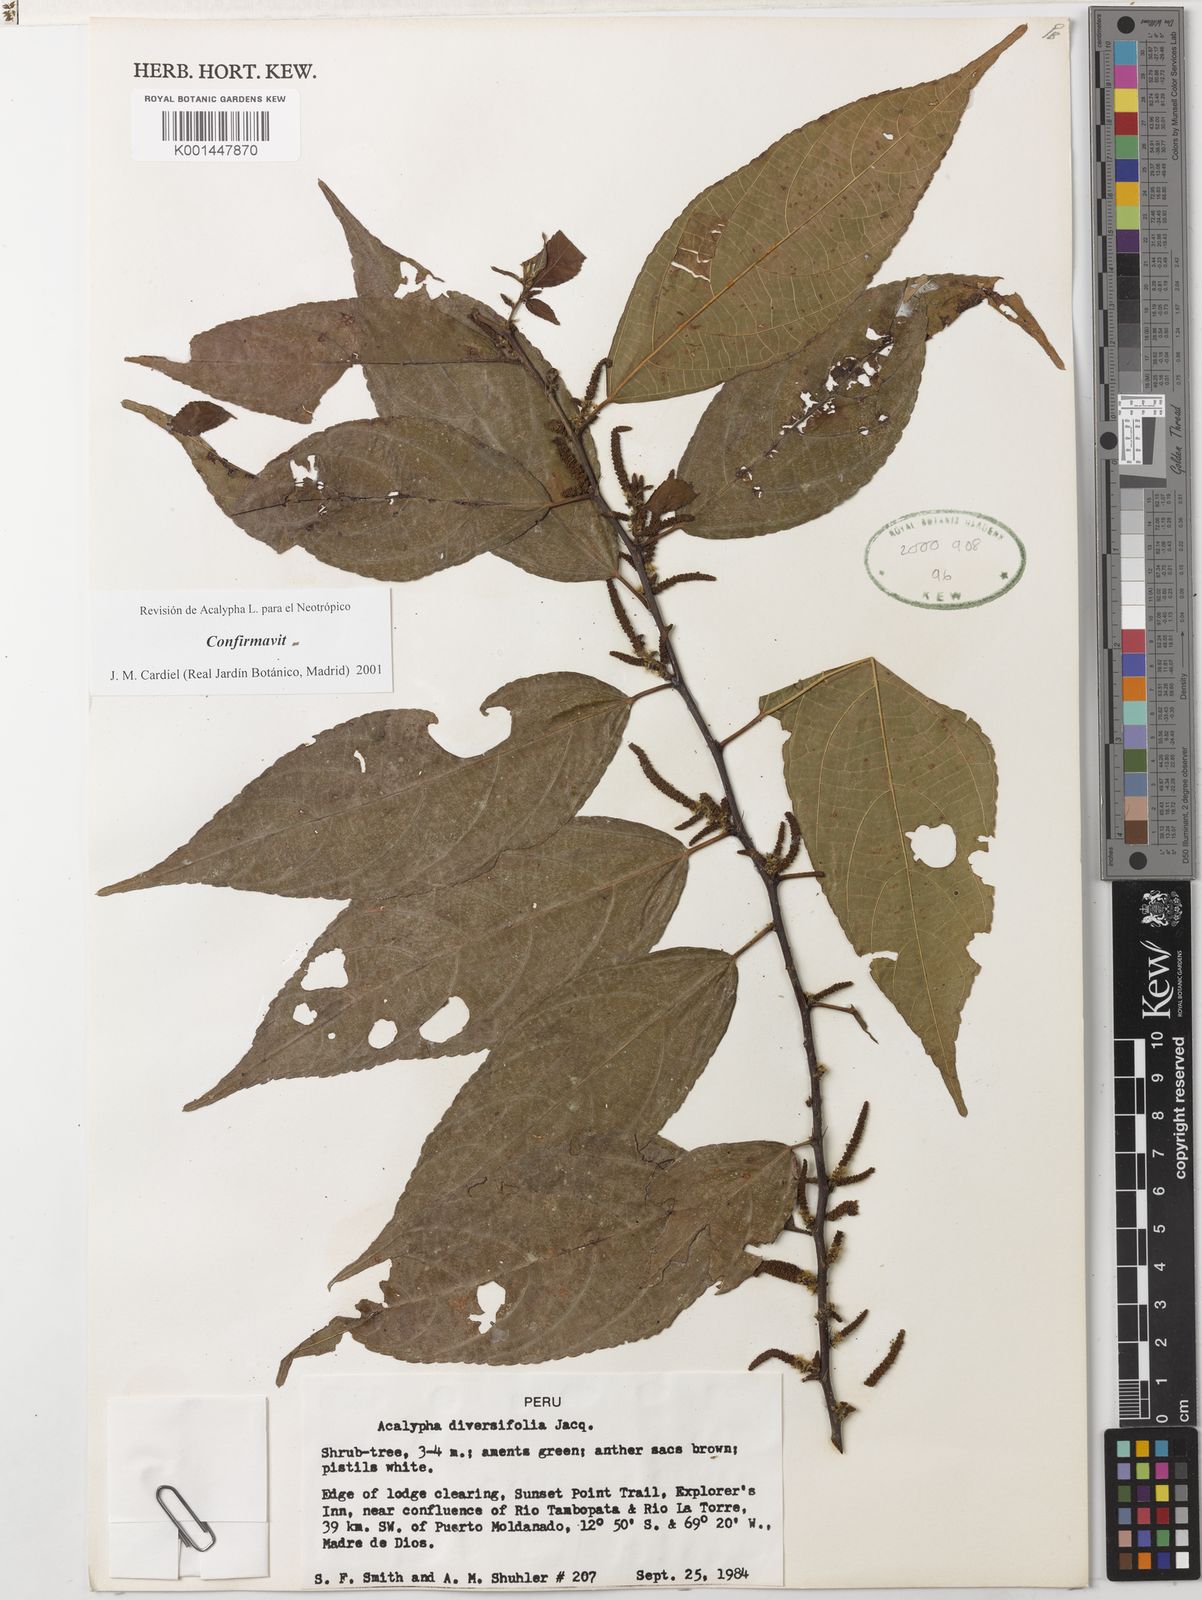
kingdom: Plantae
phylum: Tracheophyta
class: Magnoliopsida
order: Malpighiales
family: Euphorbiaceae
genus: Acalypha
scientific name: Acalypha diversifolia
